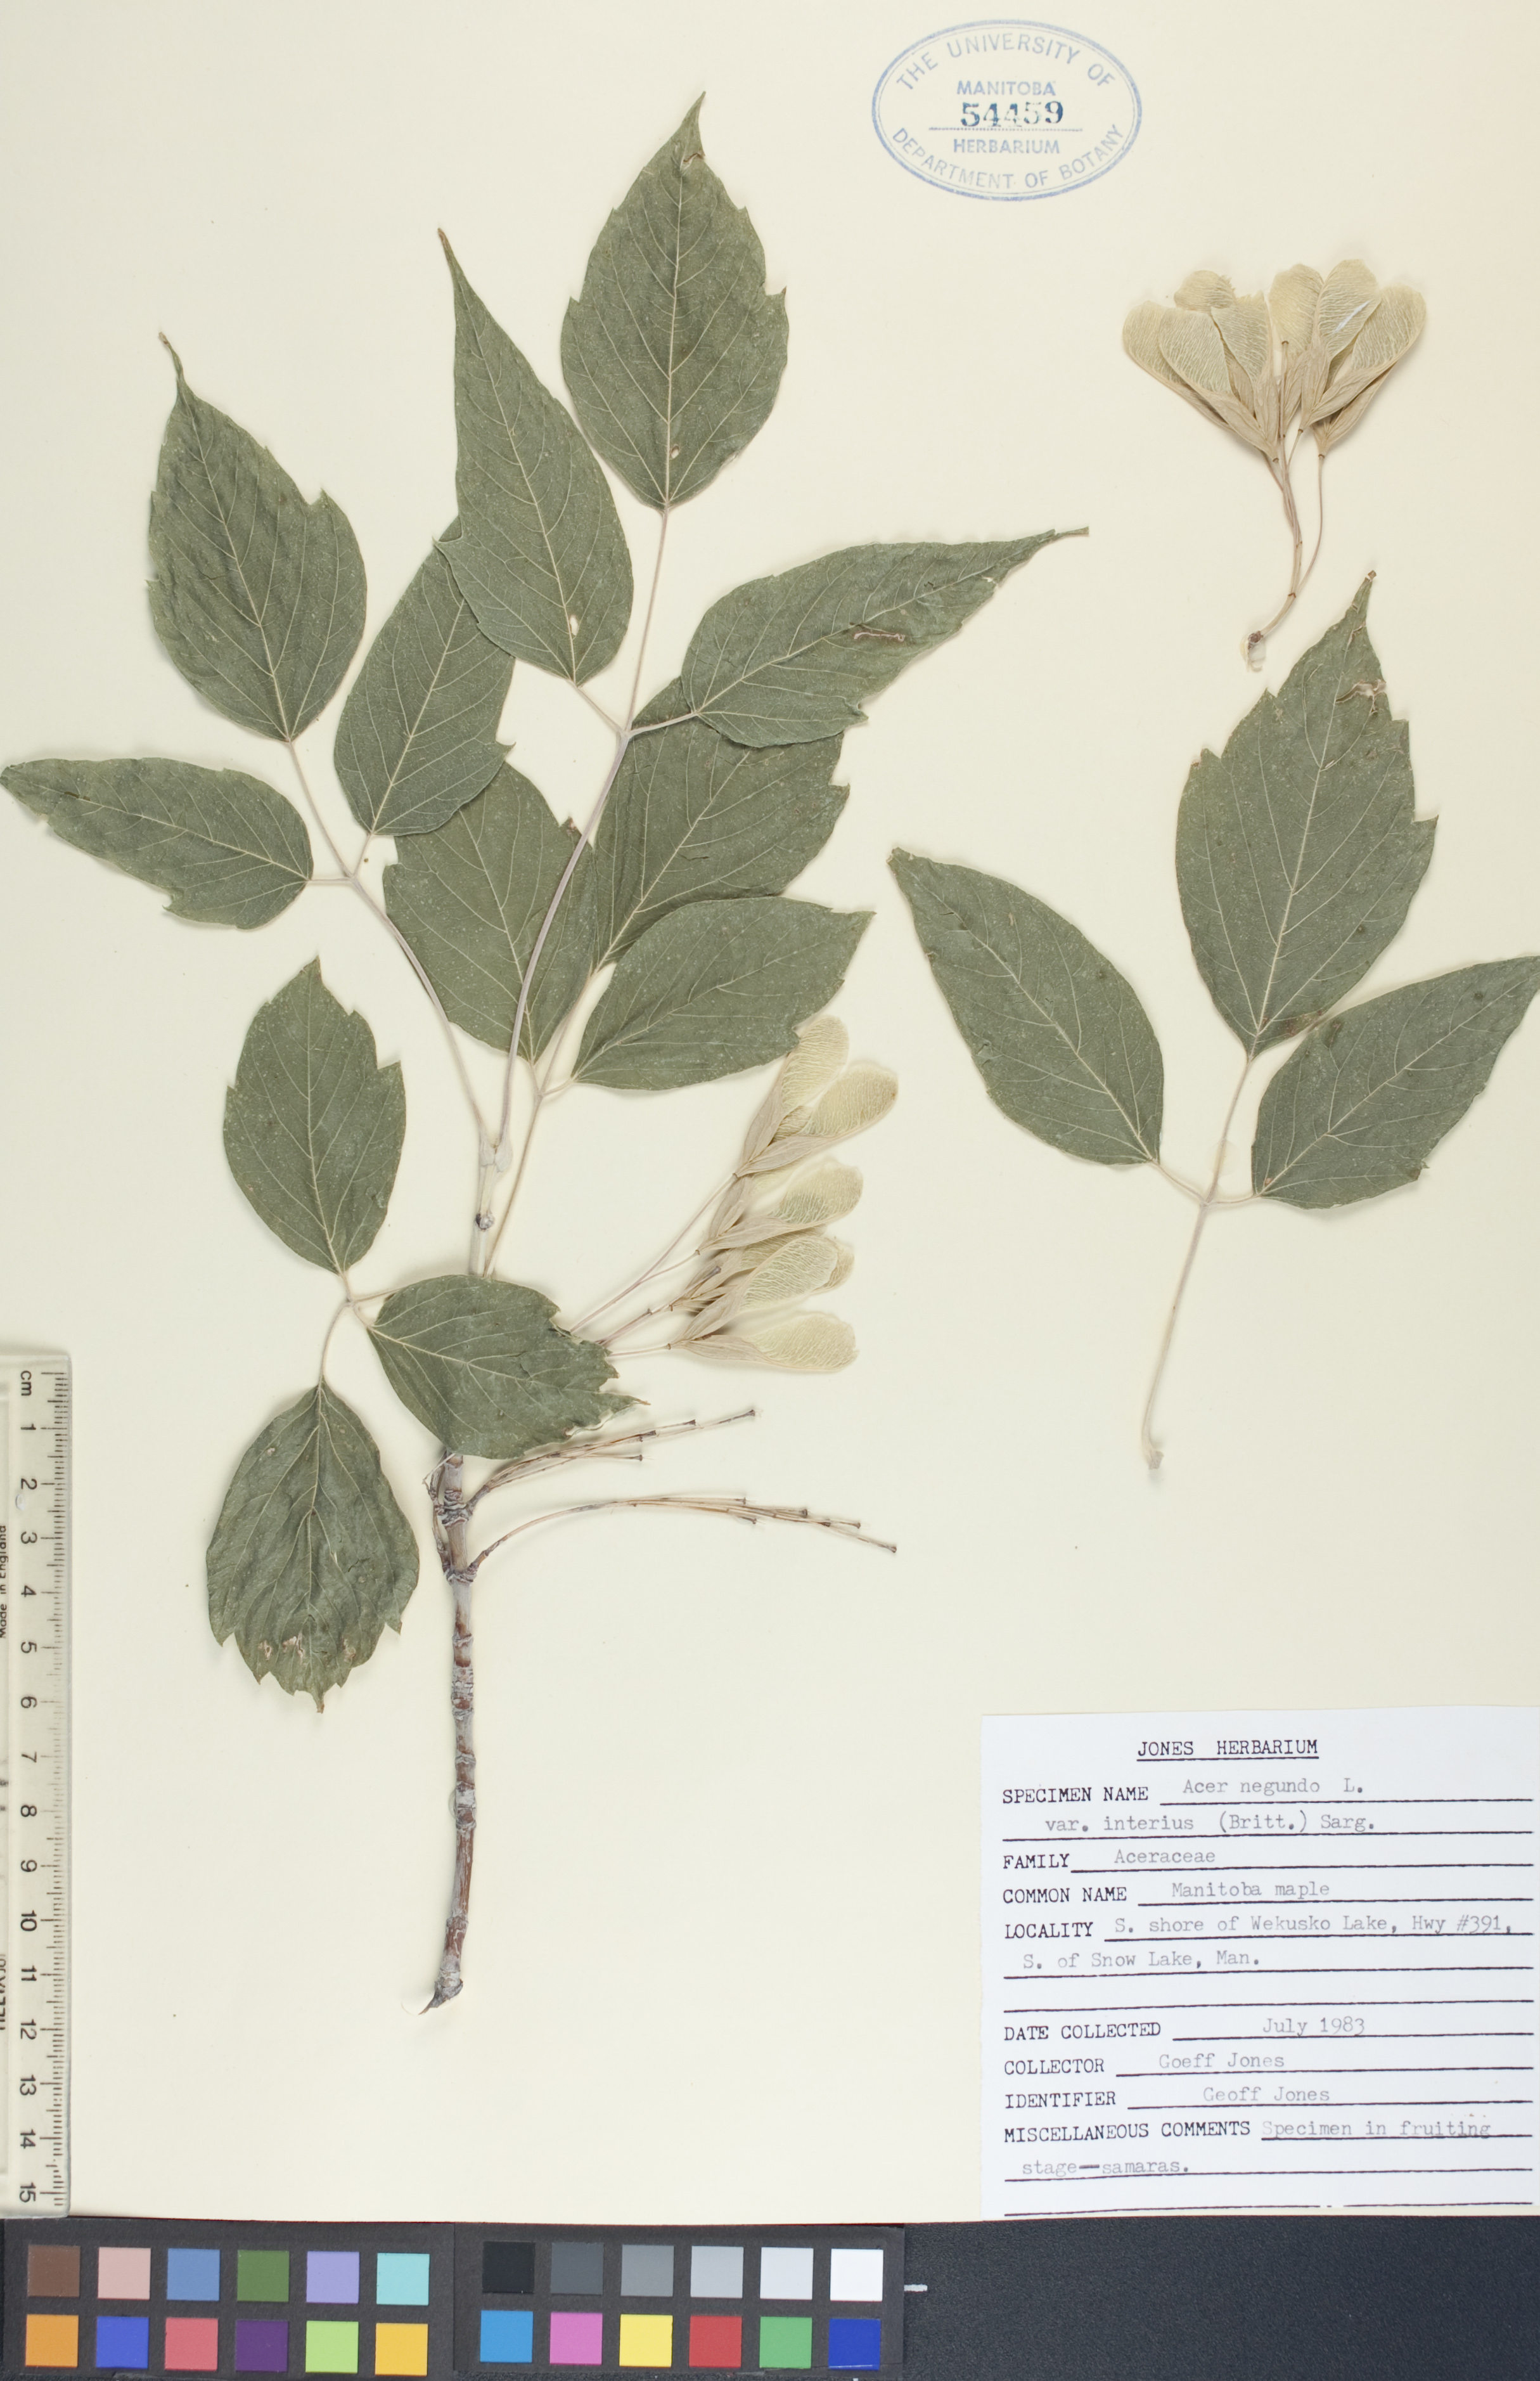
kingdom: Plantae
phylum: Tracheophyta
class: Magnoliopsida
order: Sapindales
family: Sapindaceae
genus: Acer
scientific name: Acer negundo
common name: Ashleaf maple
